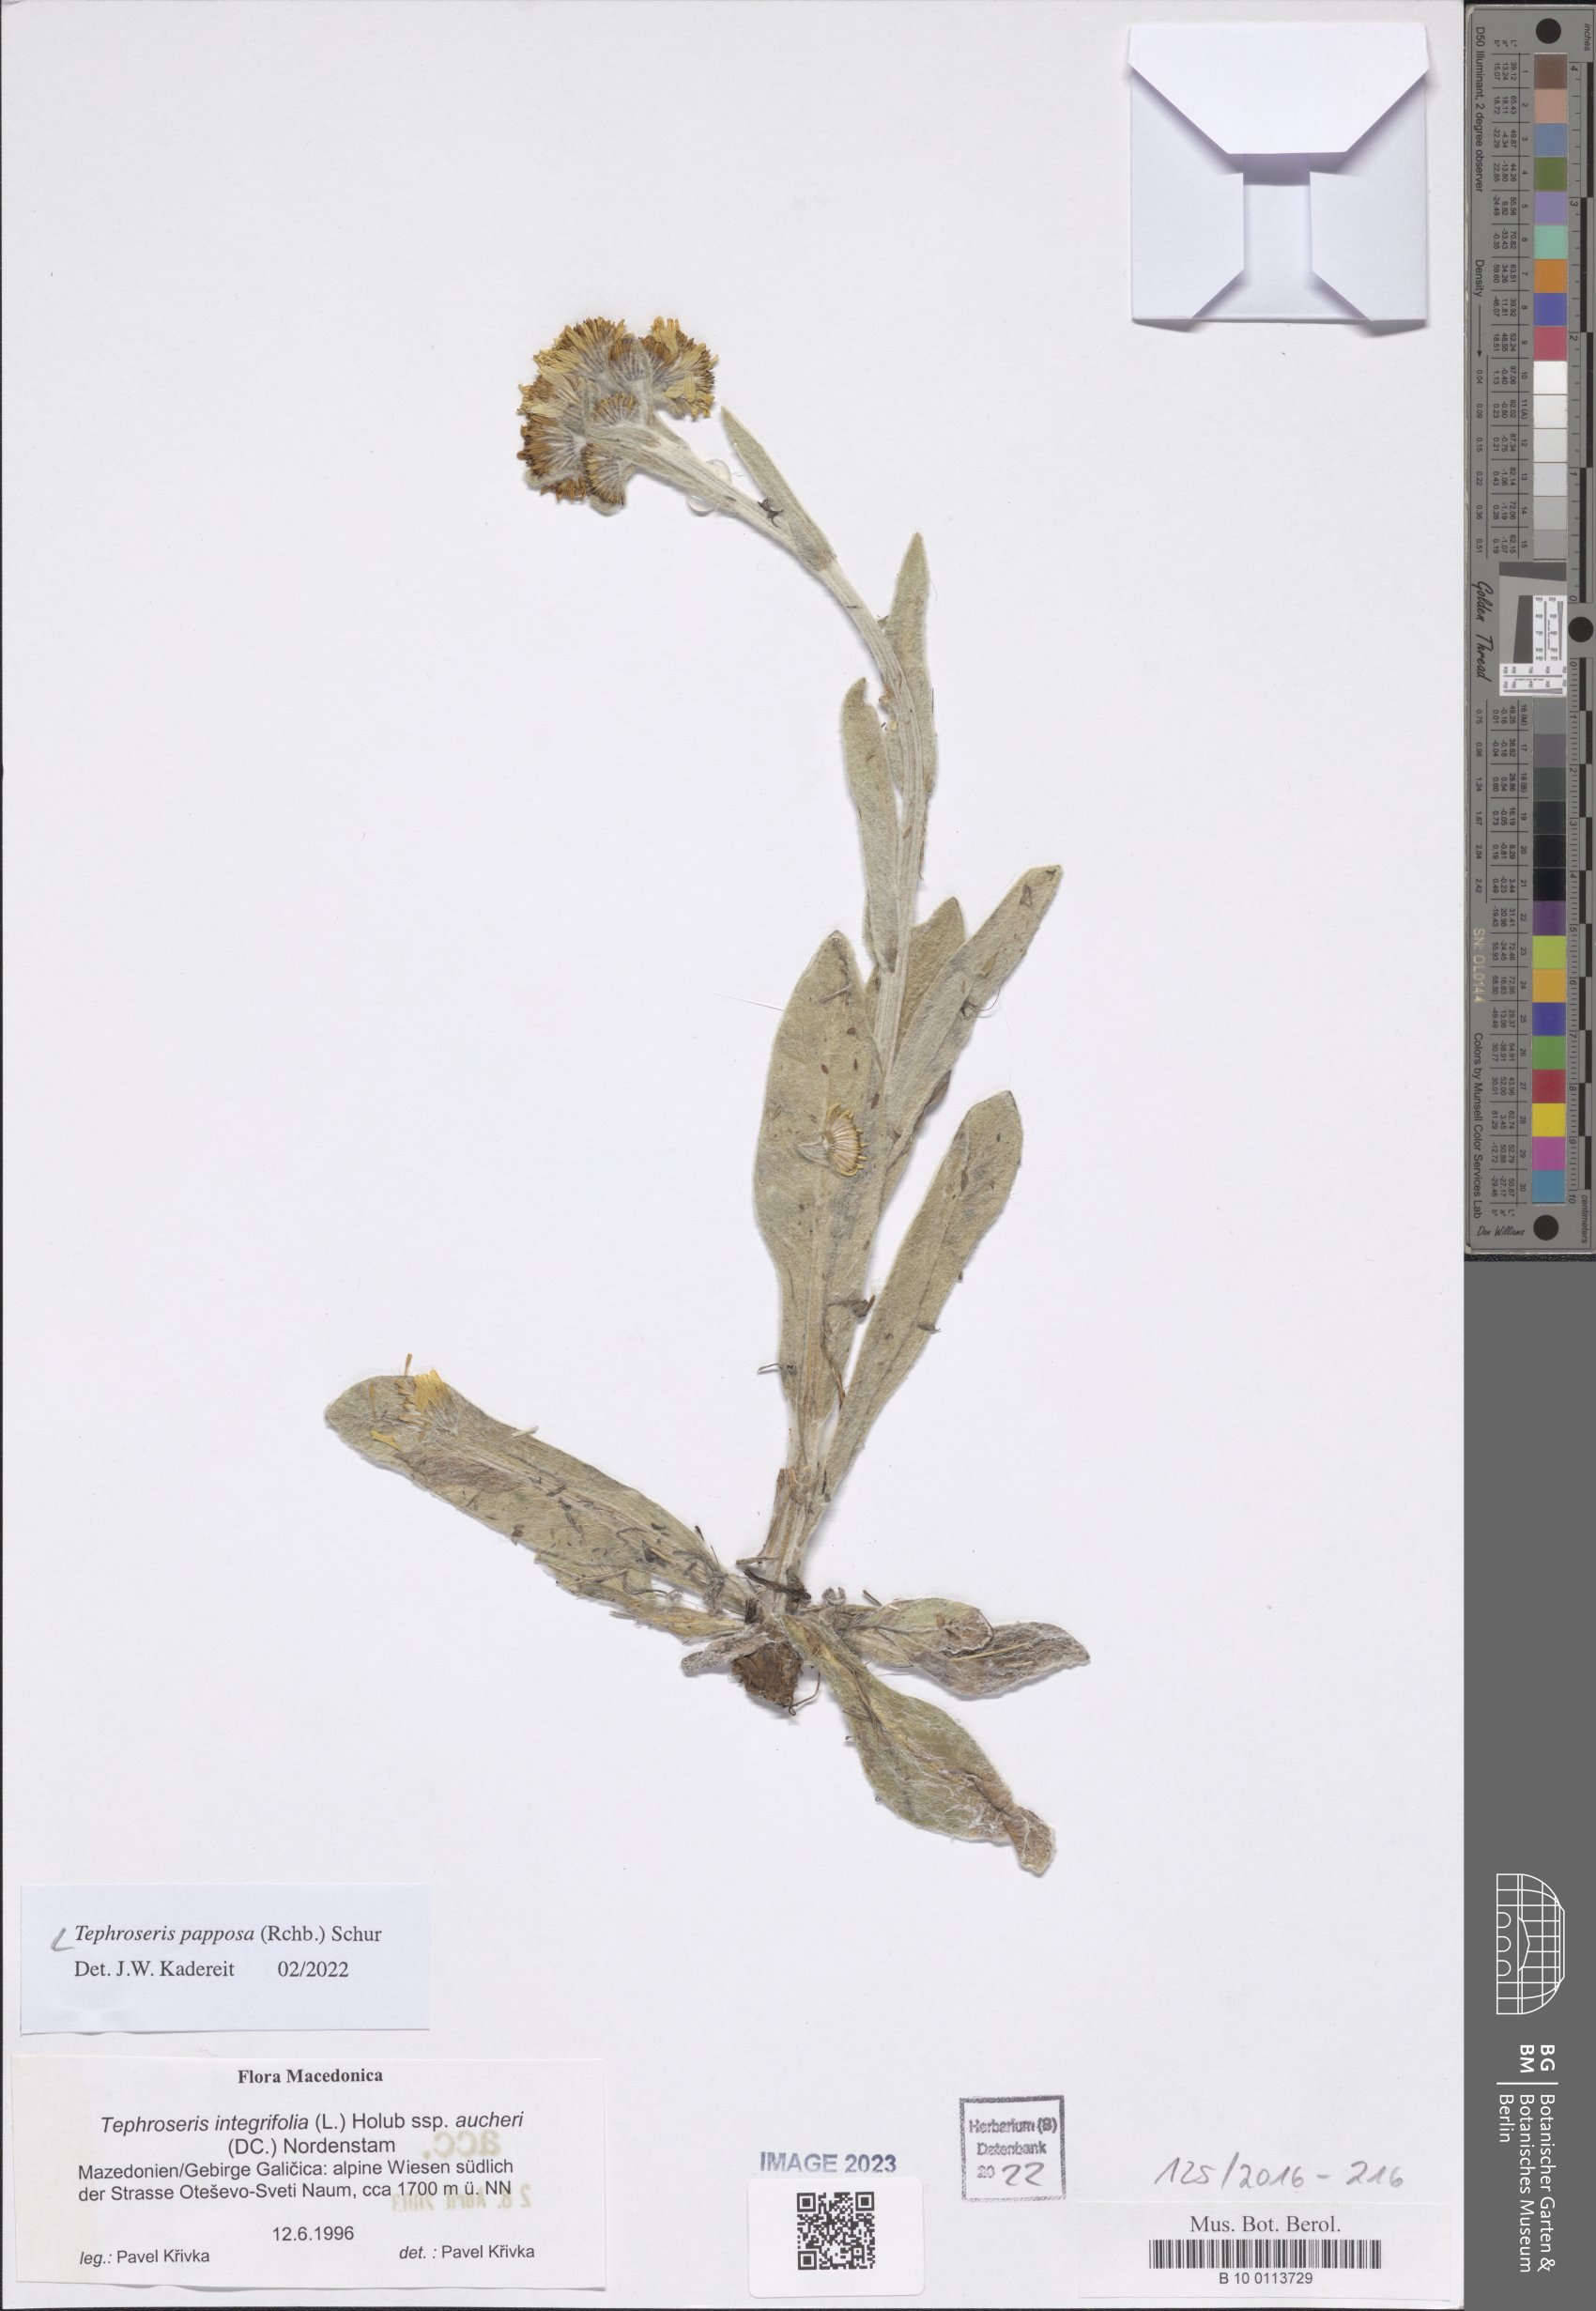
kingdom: Plantae
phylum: Tracheophyta
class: Magnoliopsida
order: Asterales
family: Asteraceae
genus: Tephroseris
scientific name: Tephroseris papposa
